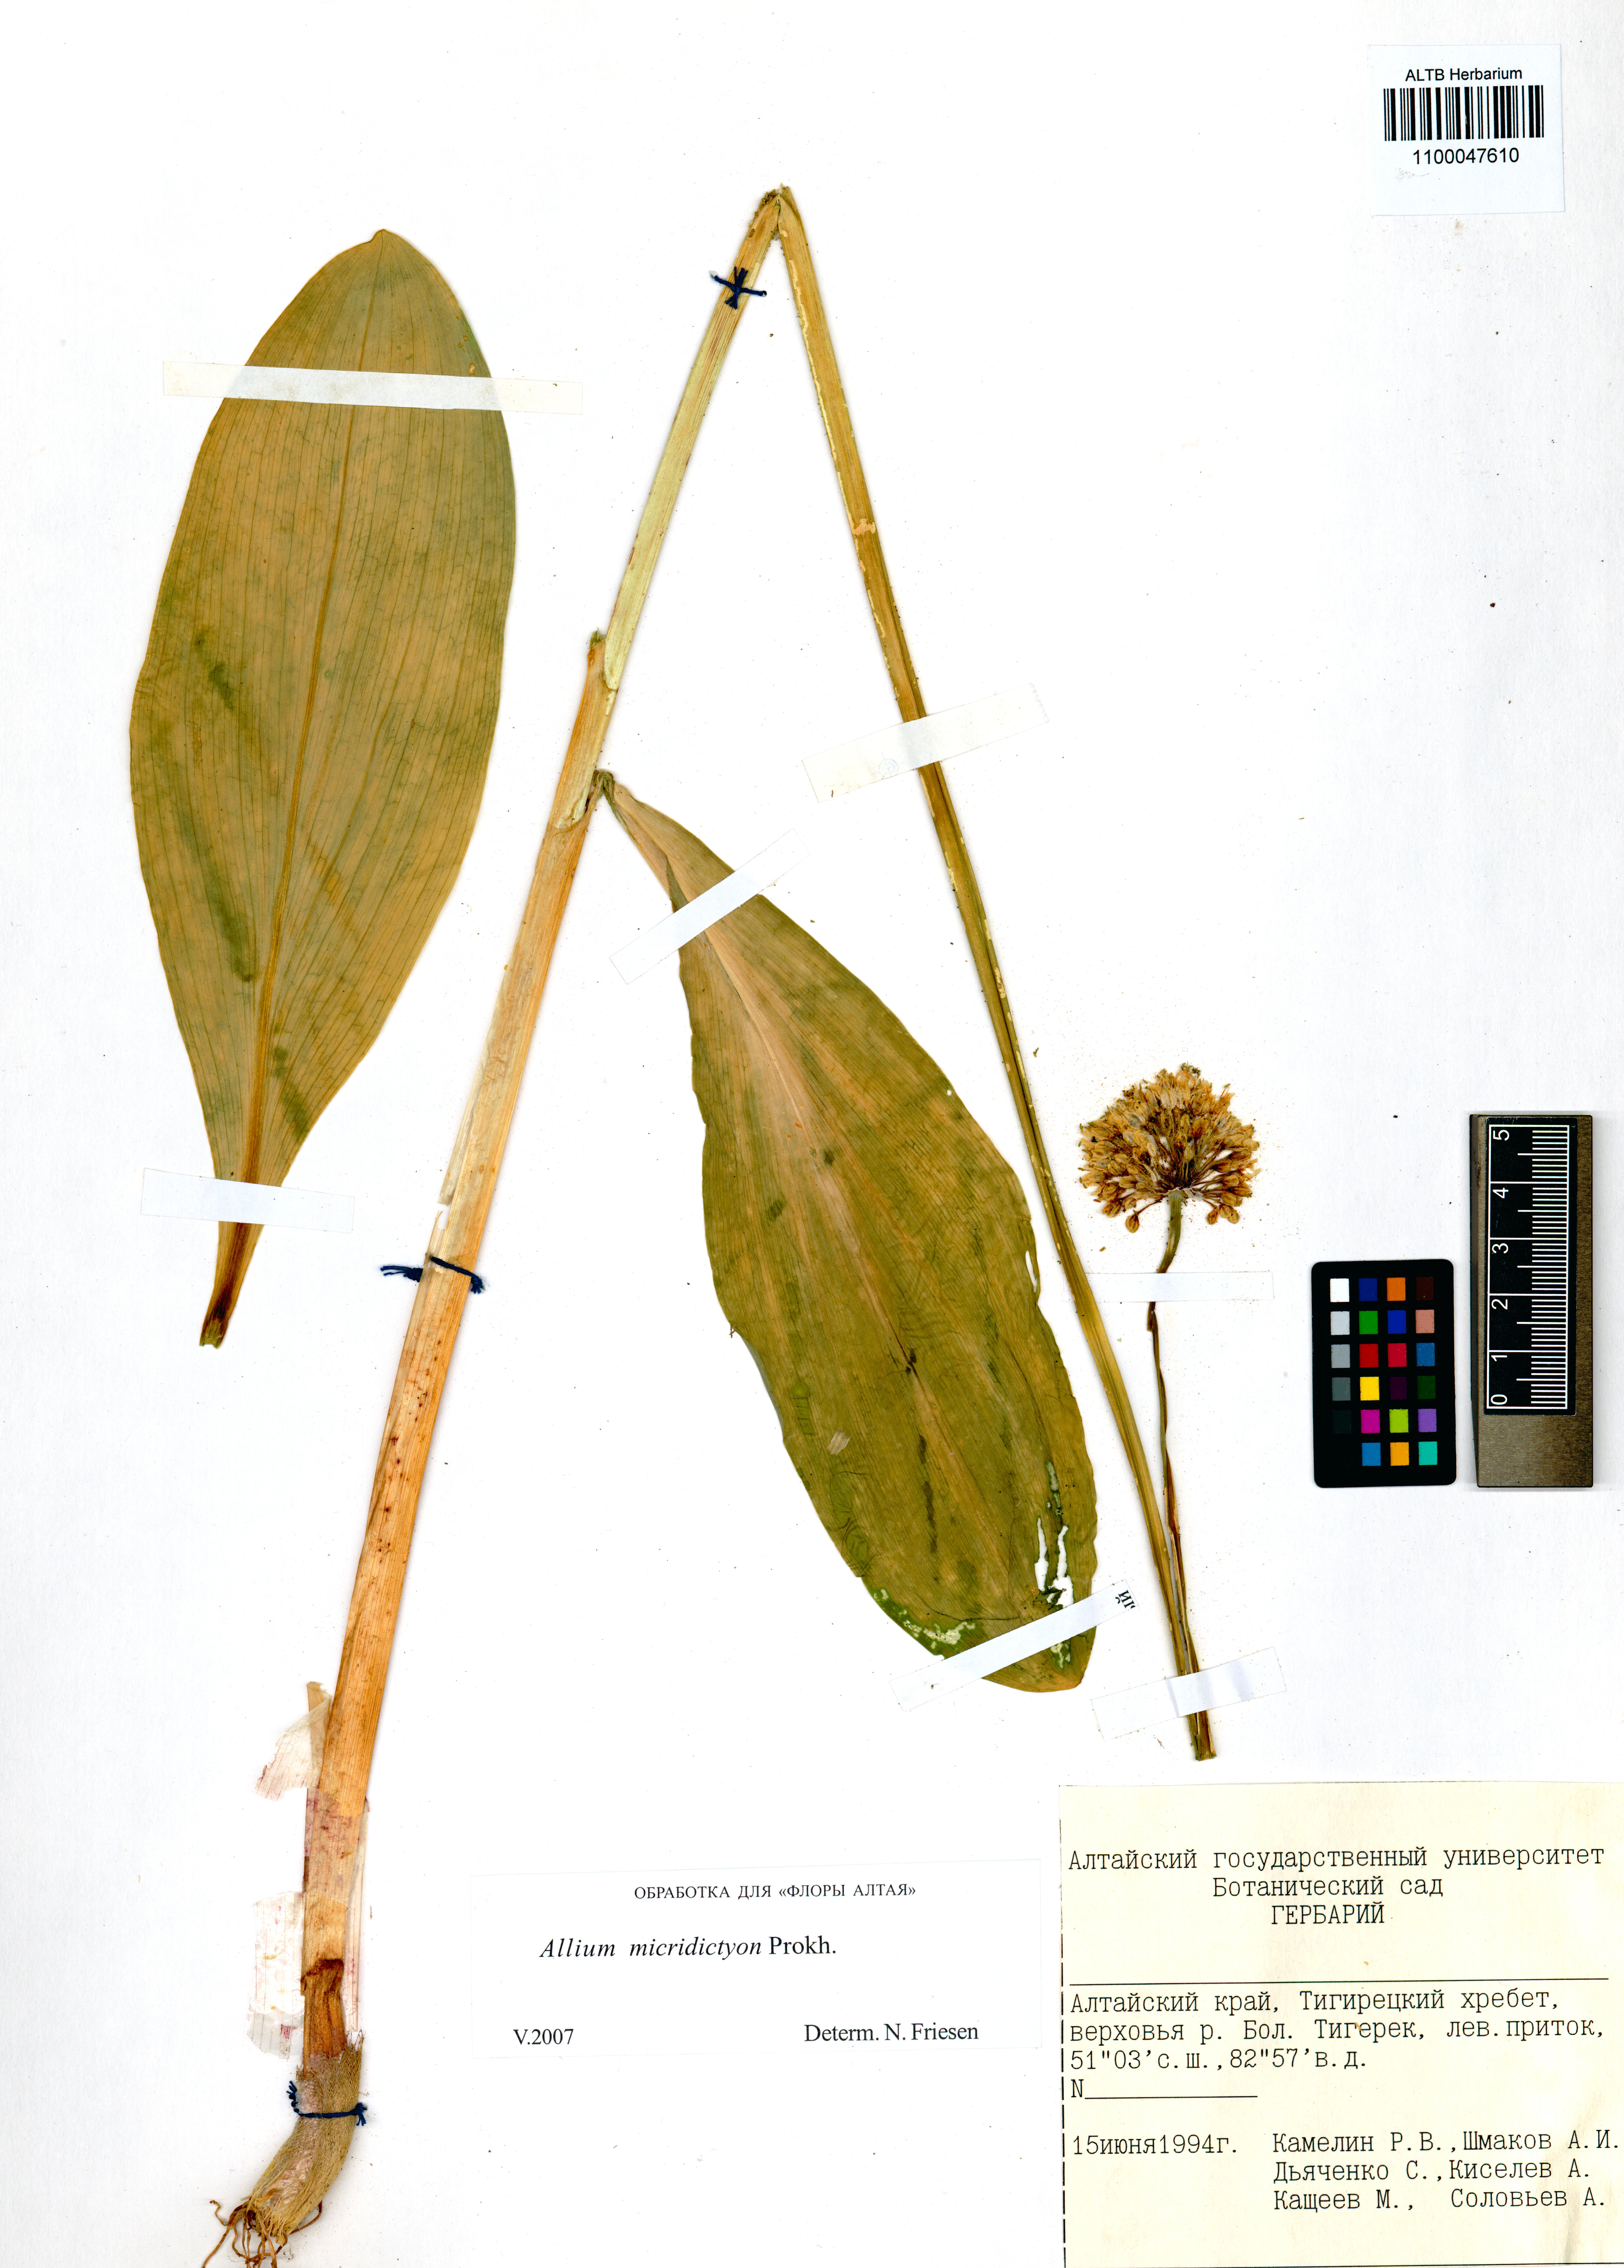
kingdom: Plantae
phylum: Tracheophyta
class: Liliopsida
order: Asparagales
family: Amaryllidaceae
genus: Allium
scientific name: Allium microdictyon
